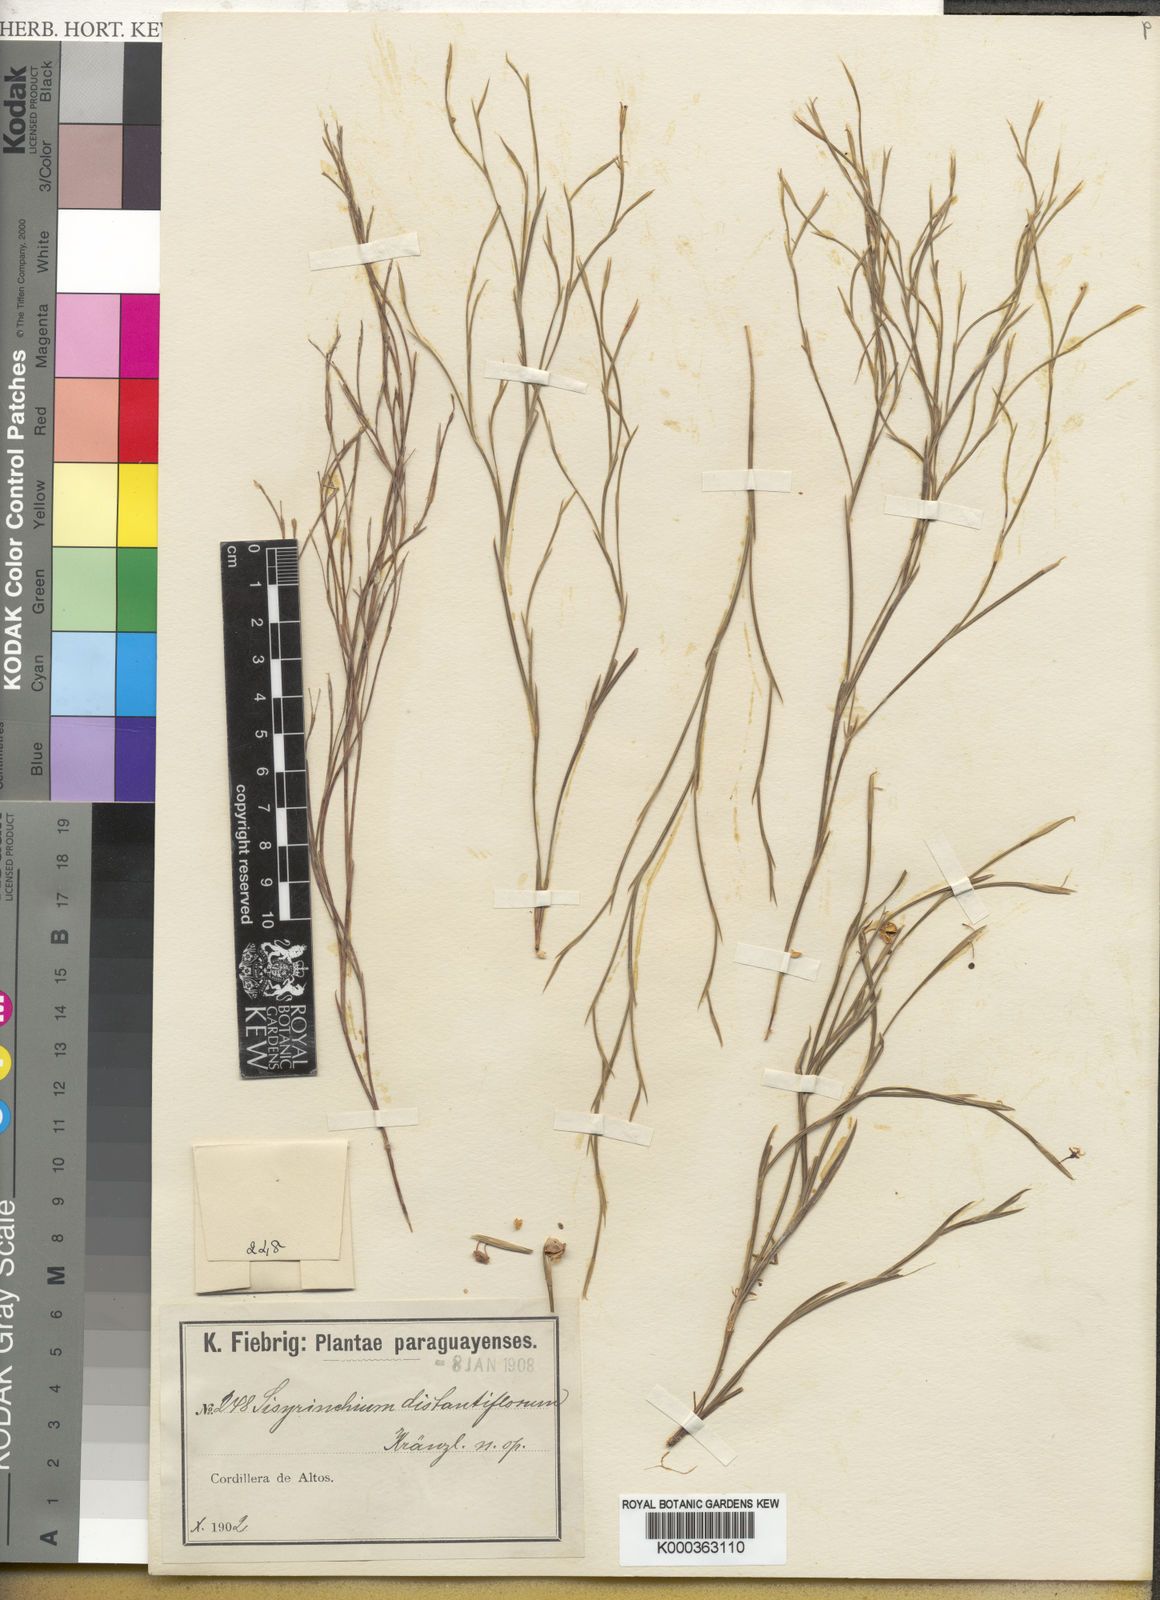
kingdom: Plantae
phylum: Tracheophyta
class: Liliopsida
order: Asparagales
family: Iridaceae
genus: Sisyrinchium
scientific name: Sisyrinchium vaginatum
